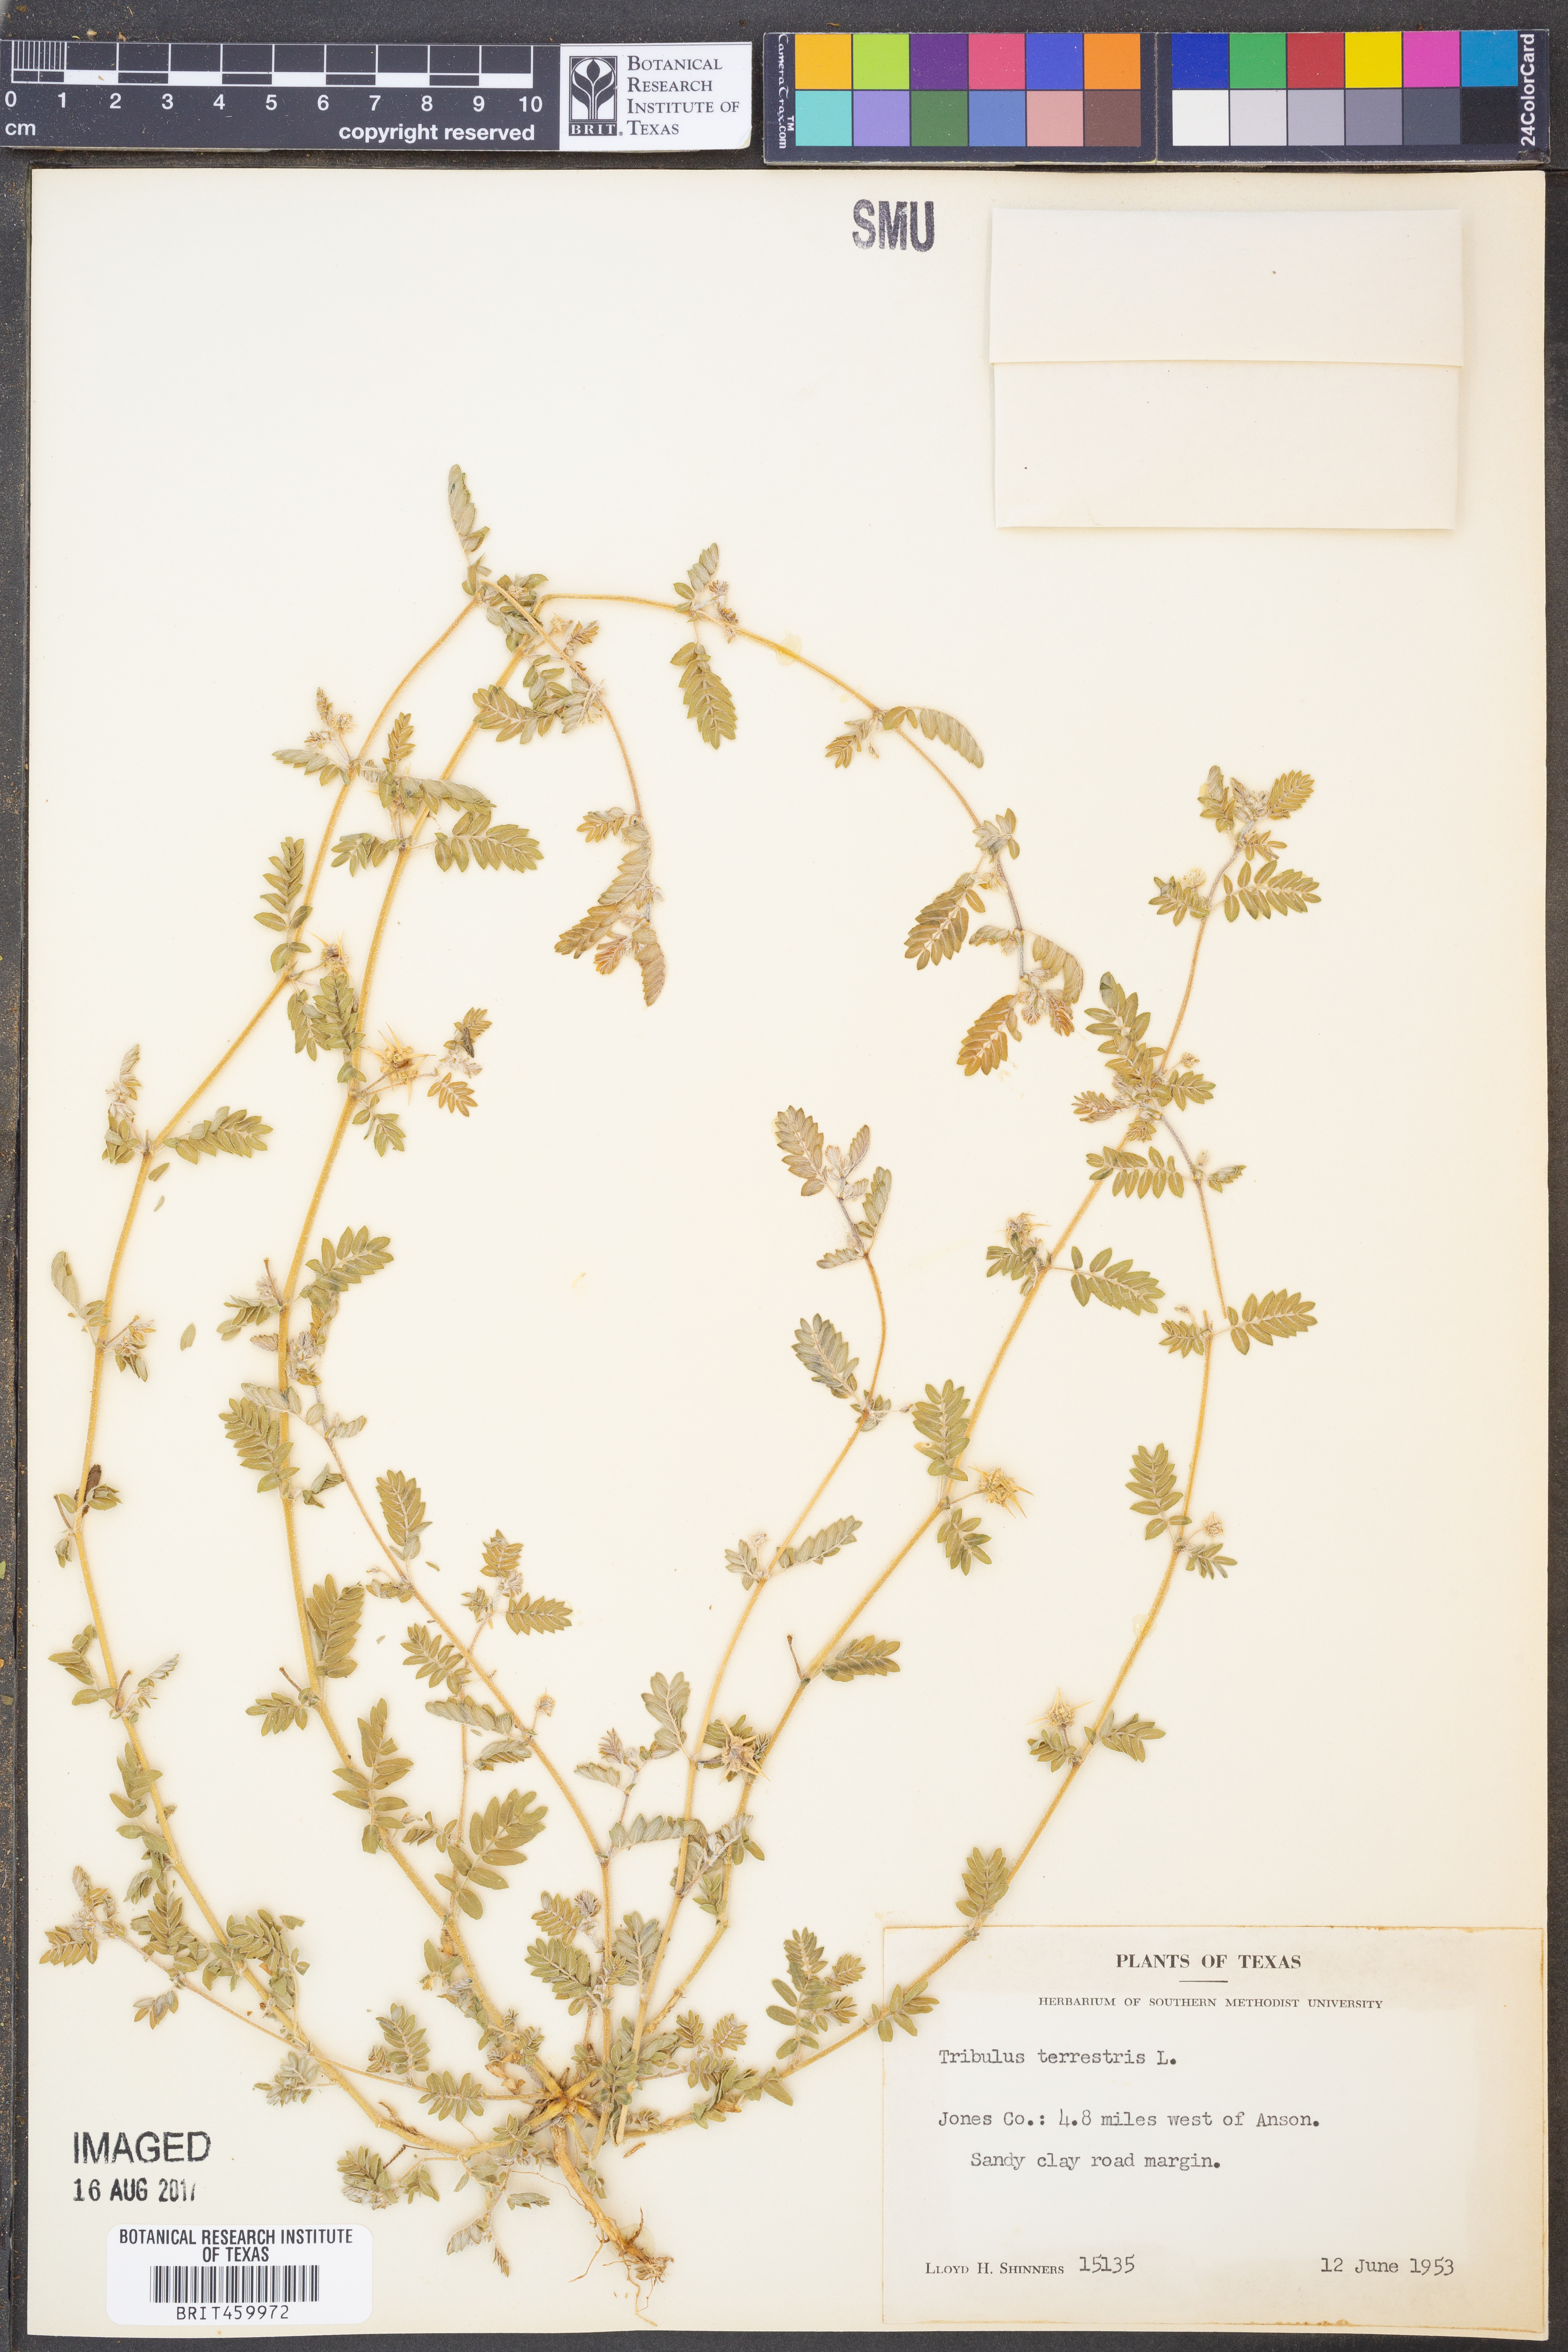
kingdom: Plantae
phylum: Tracheophyta
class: Magnoliopsida
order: Zygophyllales
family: Zygophyllaceae
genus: Tribulus
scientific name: Tribulus terrestris
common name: Puncturevine
